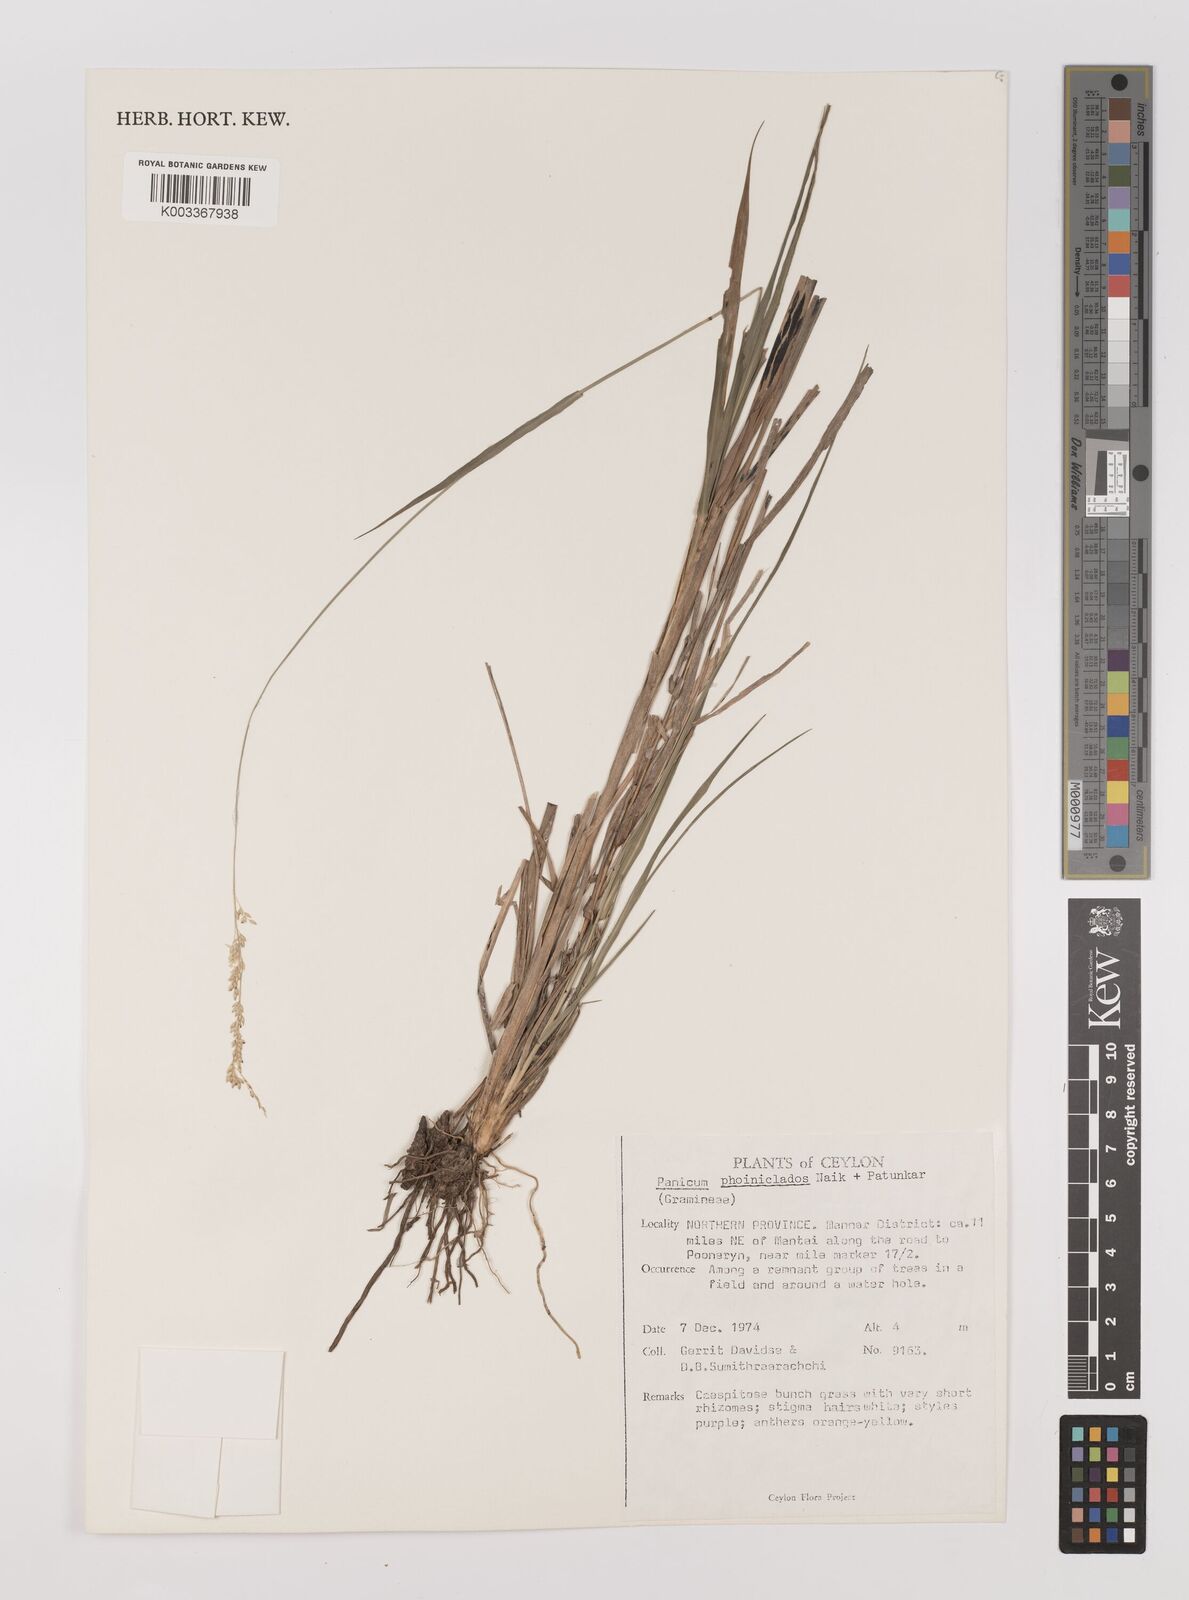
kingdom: Plantae
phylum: Tracheophyta
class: Liliopsida
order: Poales
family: Poaceae
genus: Panicum
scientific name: Panicum phoiniclados
